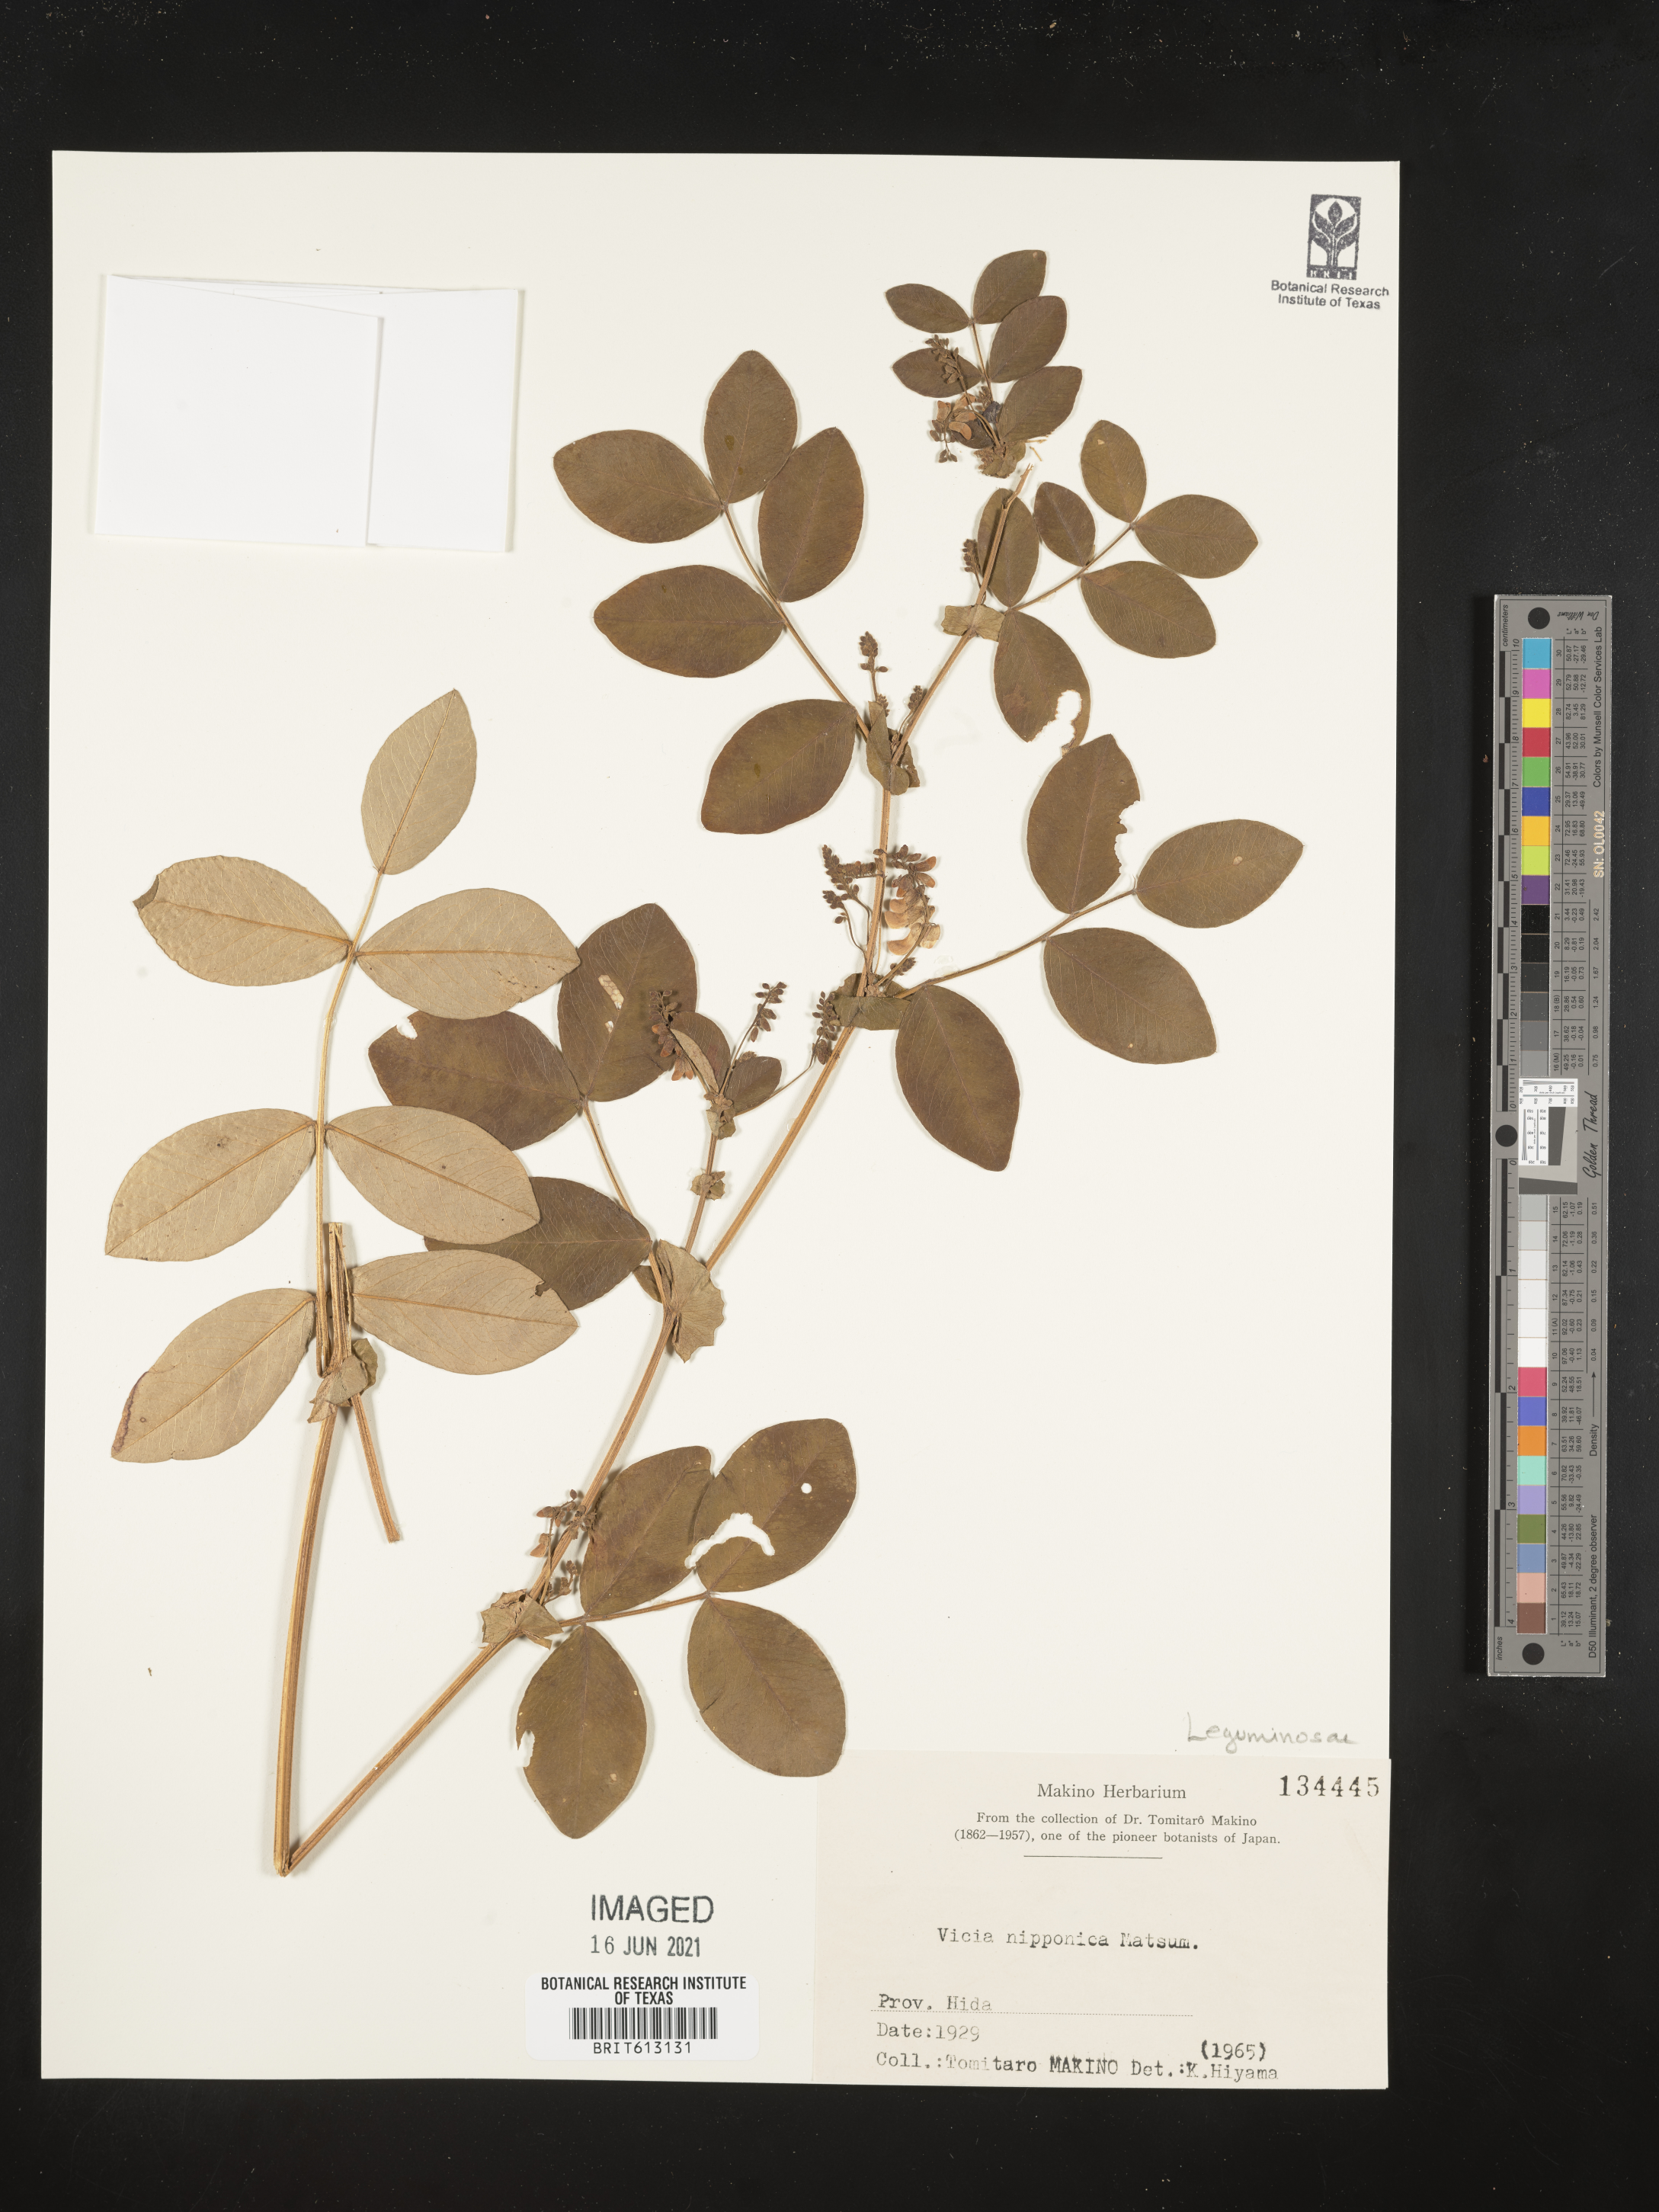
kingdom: Plantae
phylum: Tracheophyta
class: Magnoliopsida
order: Fabales
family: Fabaceae
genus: Vicia
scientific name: Vicia nipponica
